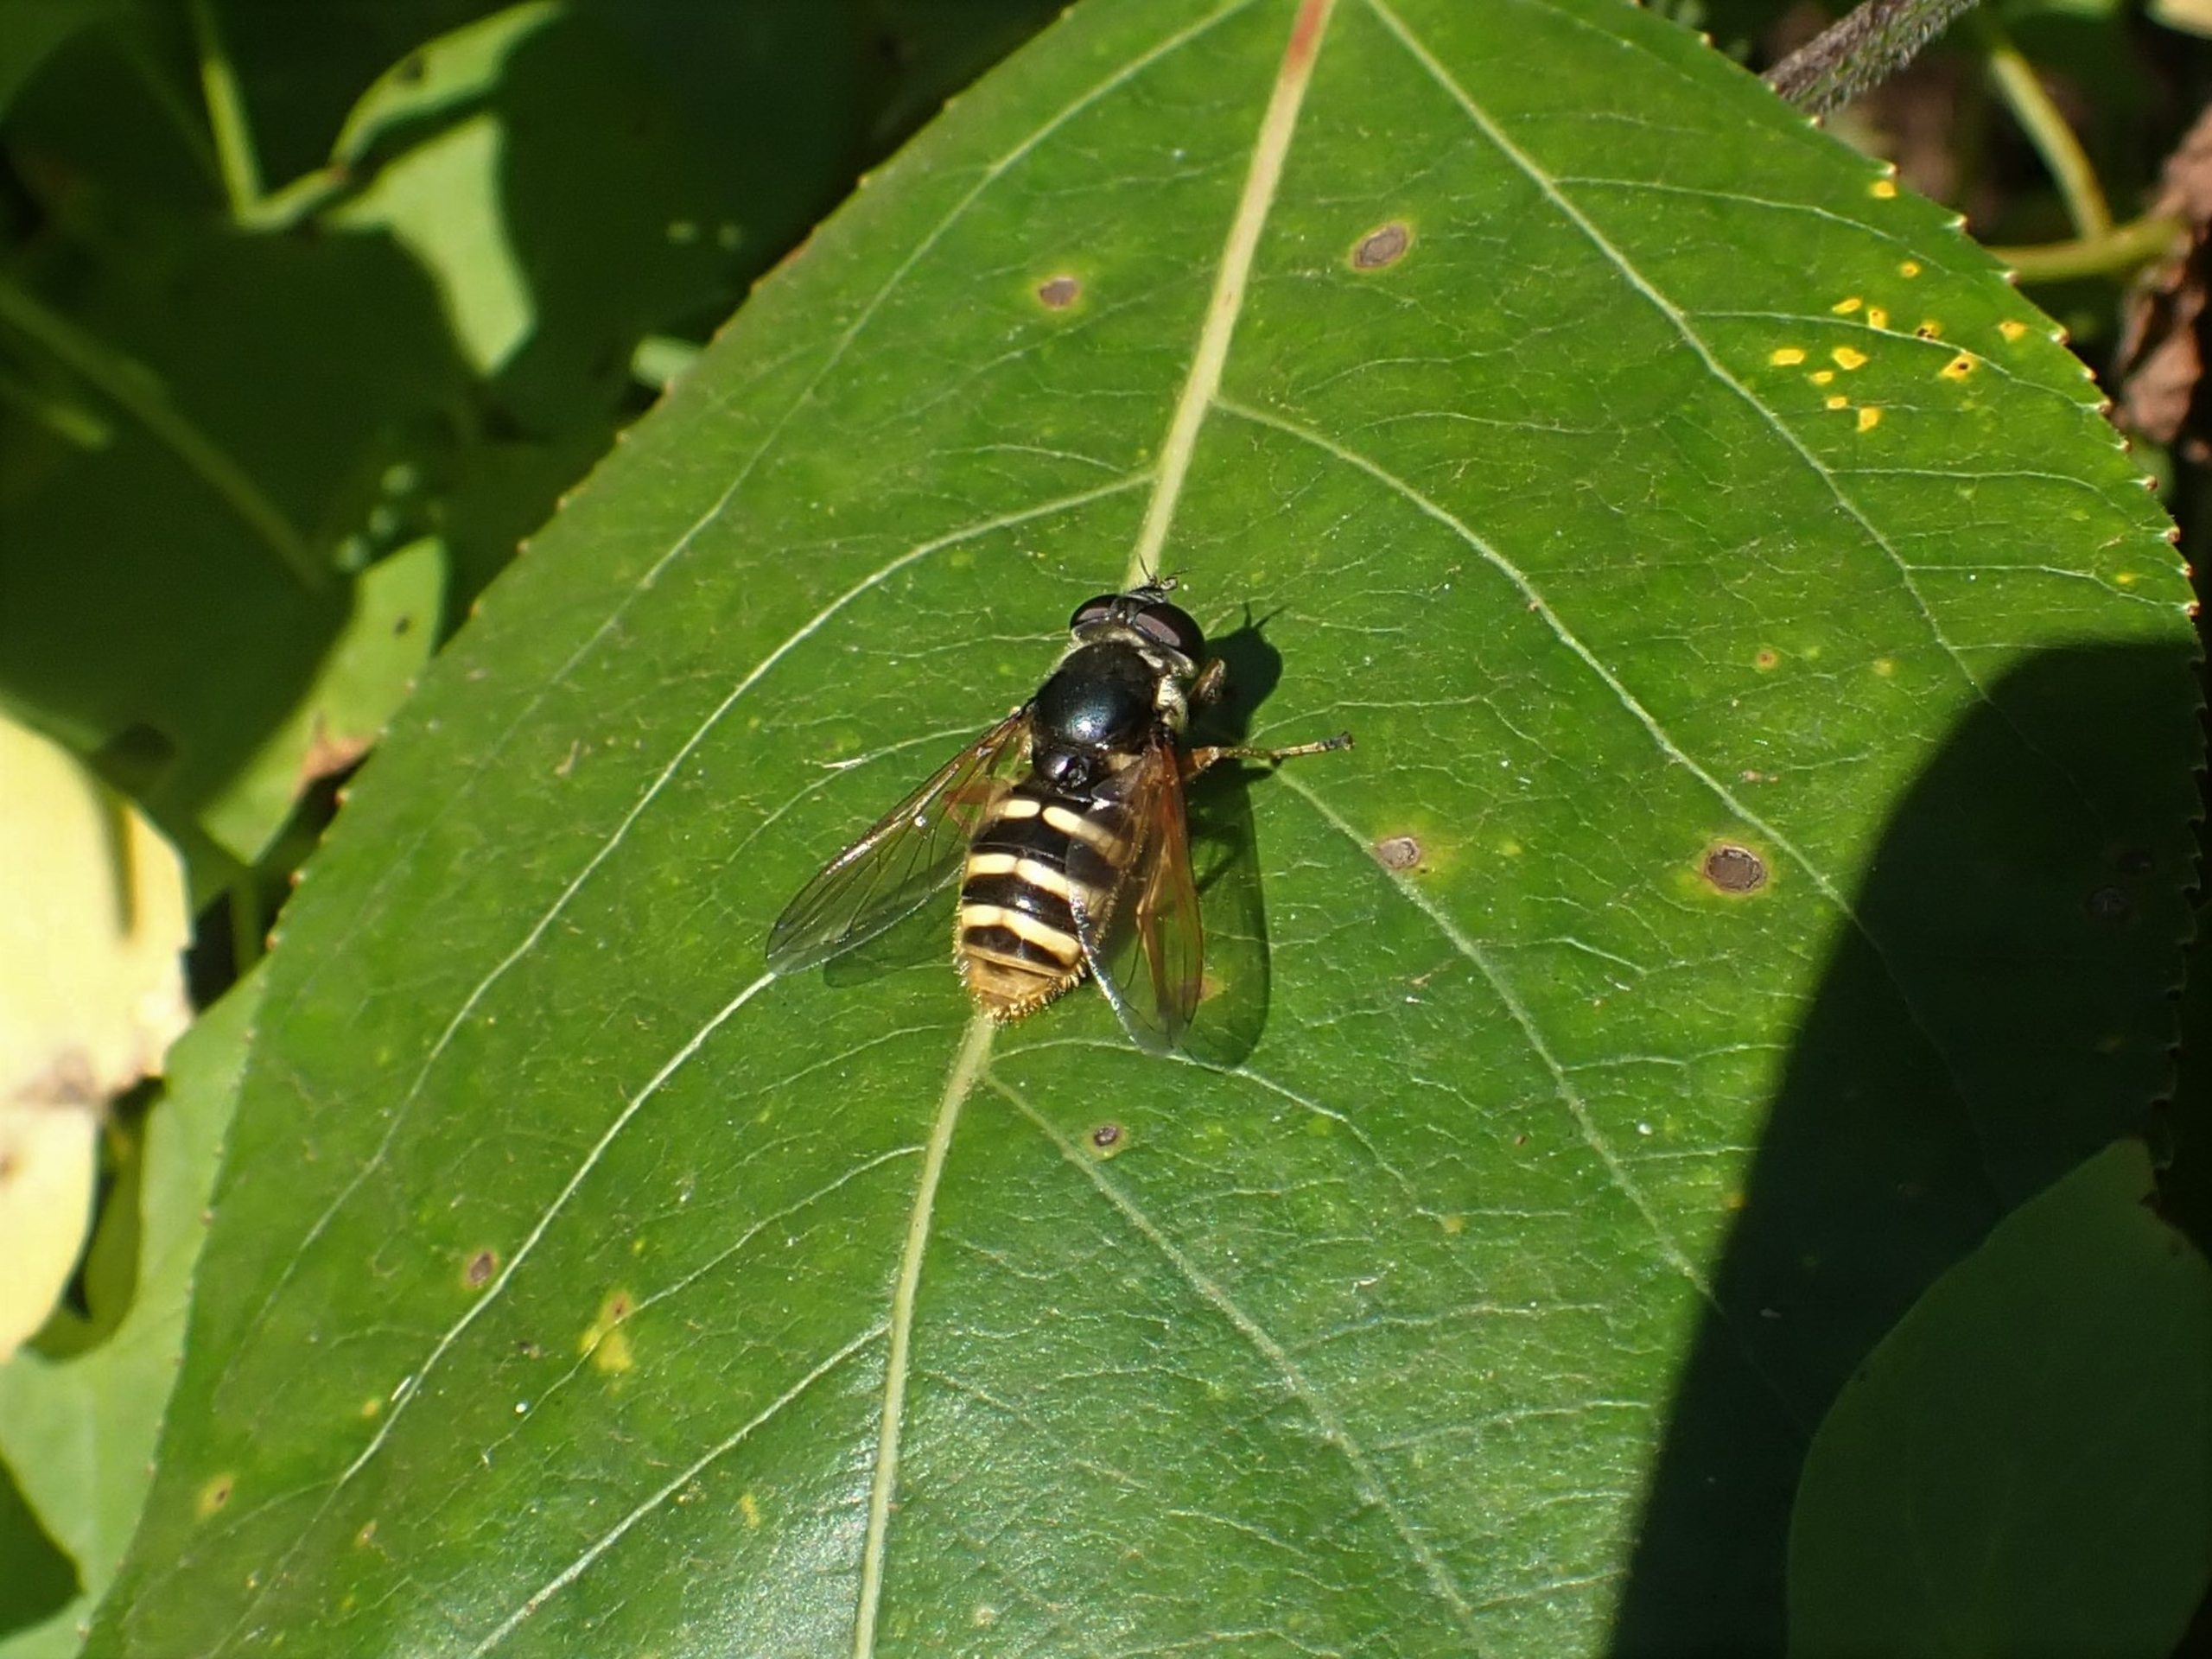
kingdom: Animalia
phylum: Arthropoda
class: Insecta
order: Diptera
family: Syrphidae
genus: Sericomyia
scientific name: Sericomyia silentis
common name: Tørve-silkesvirreflue
